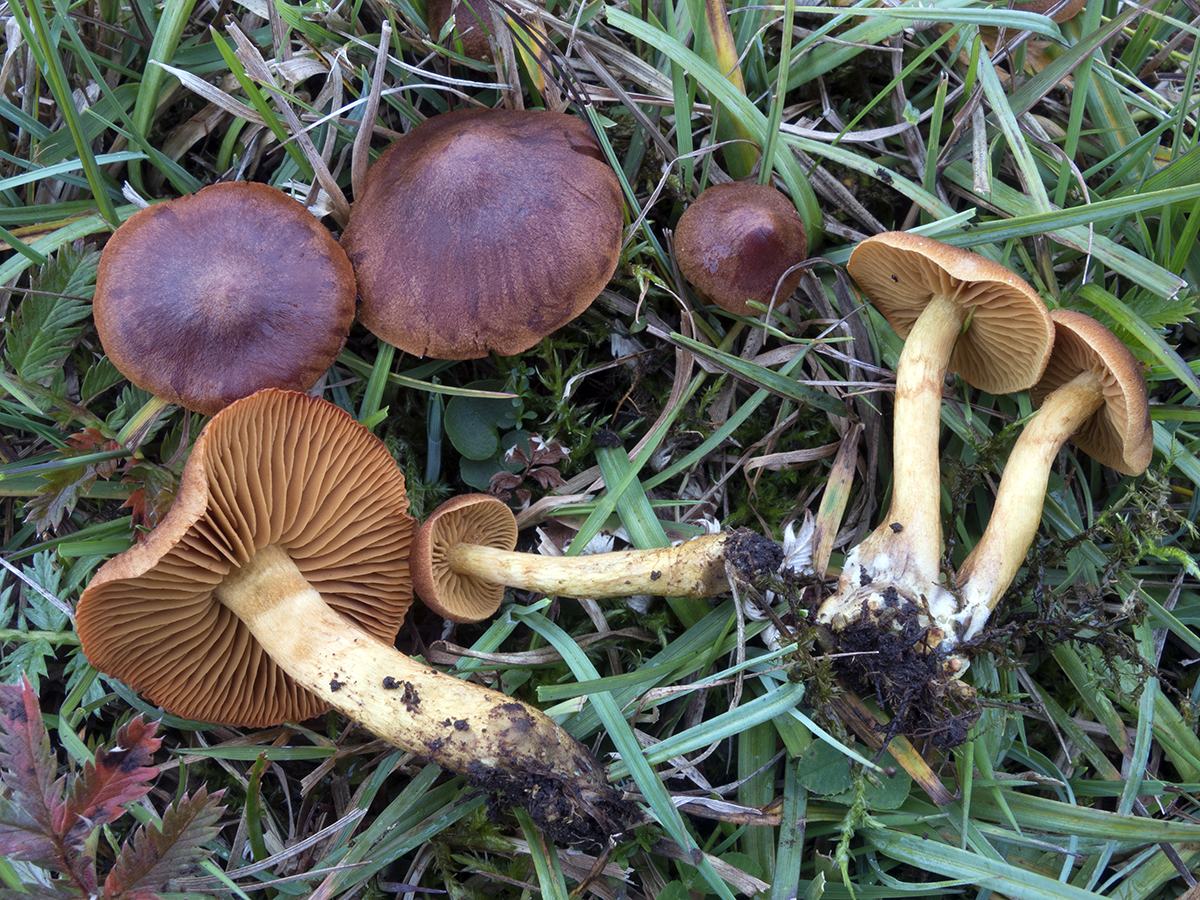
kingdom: Fungi
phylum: Basidiomycota
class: Agaricomycetes
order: Agaricales
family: Cortinariaceae
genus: Cortinarius
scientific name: Cortinarius pratensis
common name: hede-slørhat
